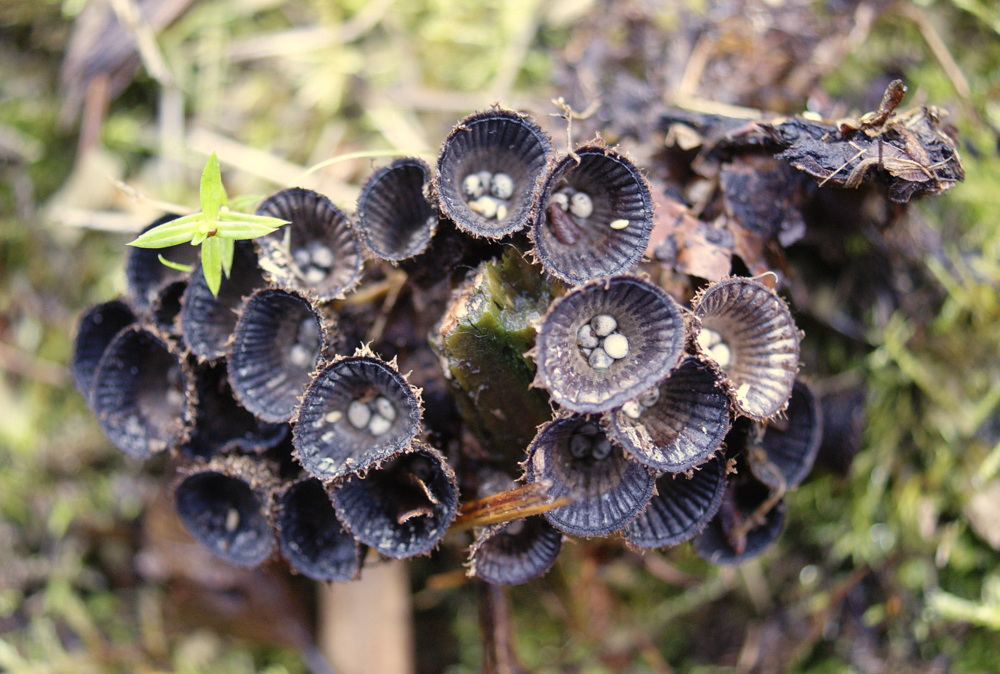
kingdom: Fungi
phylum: Basidiomycota
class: Agaricomycetes
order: Agaricales
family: Agaricaceae
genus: Cyathus
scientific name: Cyathus striatus
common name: stribet redesvamp
